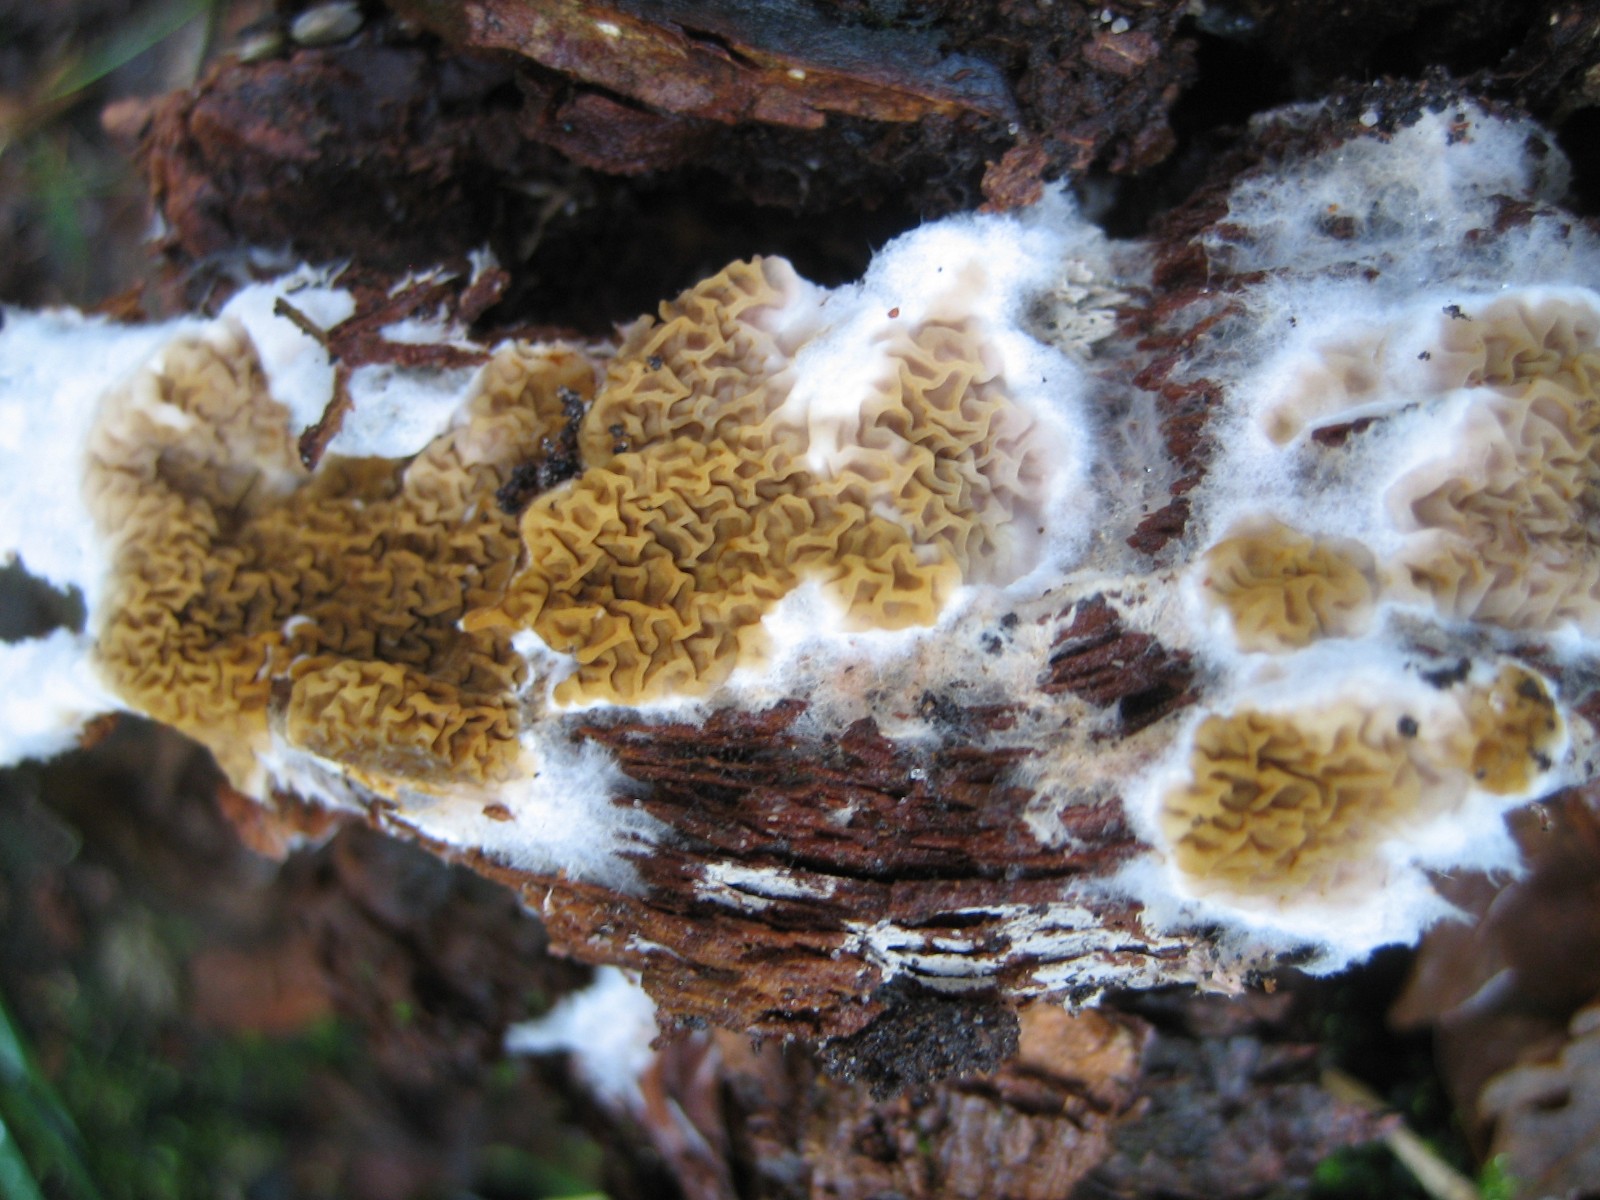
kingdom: Fungi
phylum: Basidiomycota
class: Agaricomycetes
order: Boletales
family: Serpulaceae
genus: Serpula
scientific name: Serpula himantioides
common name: tyndkødet hussvamp
